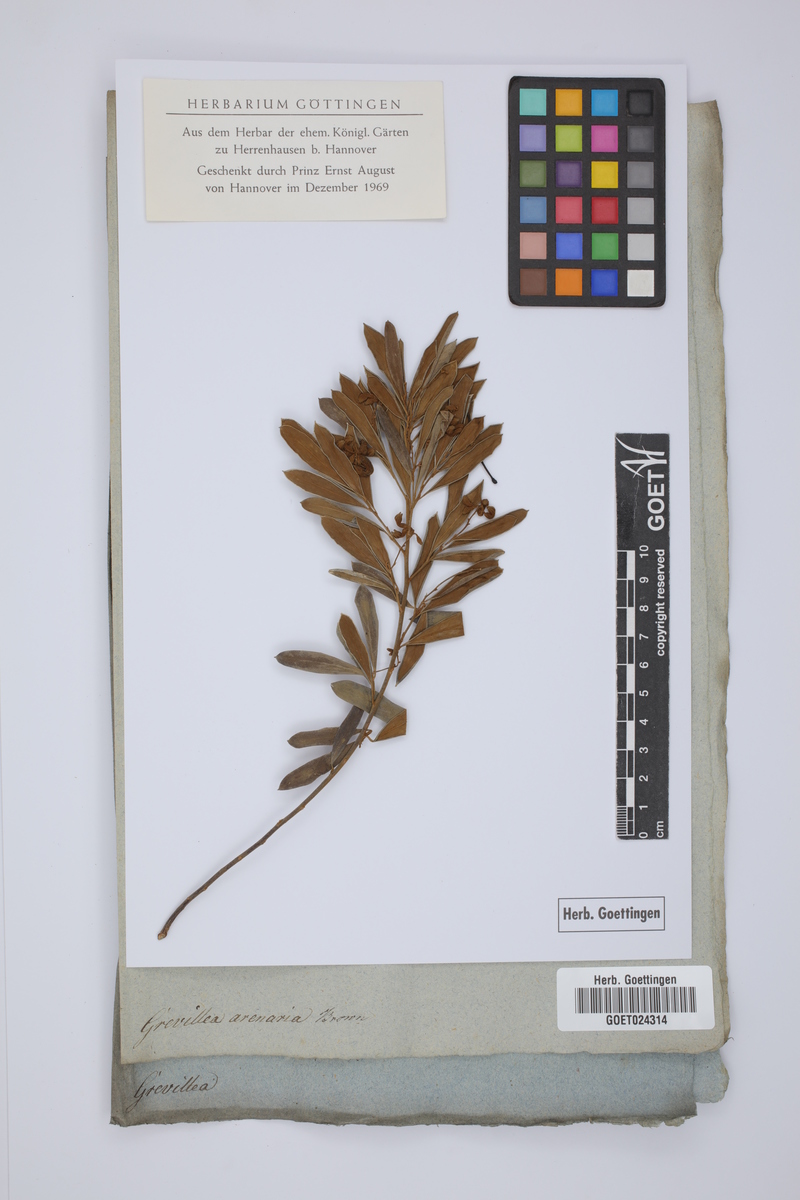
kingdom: Plantae
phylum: Tracheophyta
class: Magnoliopsida
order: Proteales
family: Proteaceae
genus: Grevillea
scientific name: Grevillea arenaria
